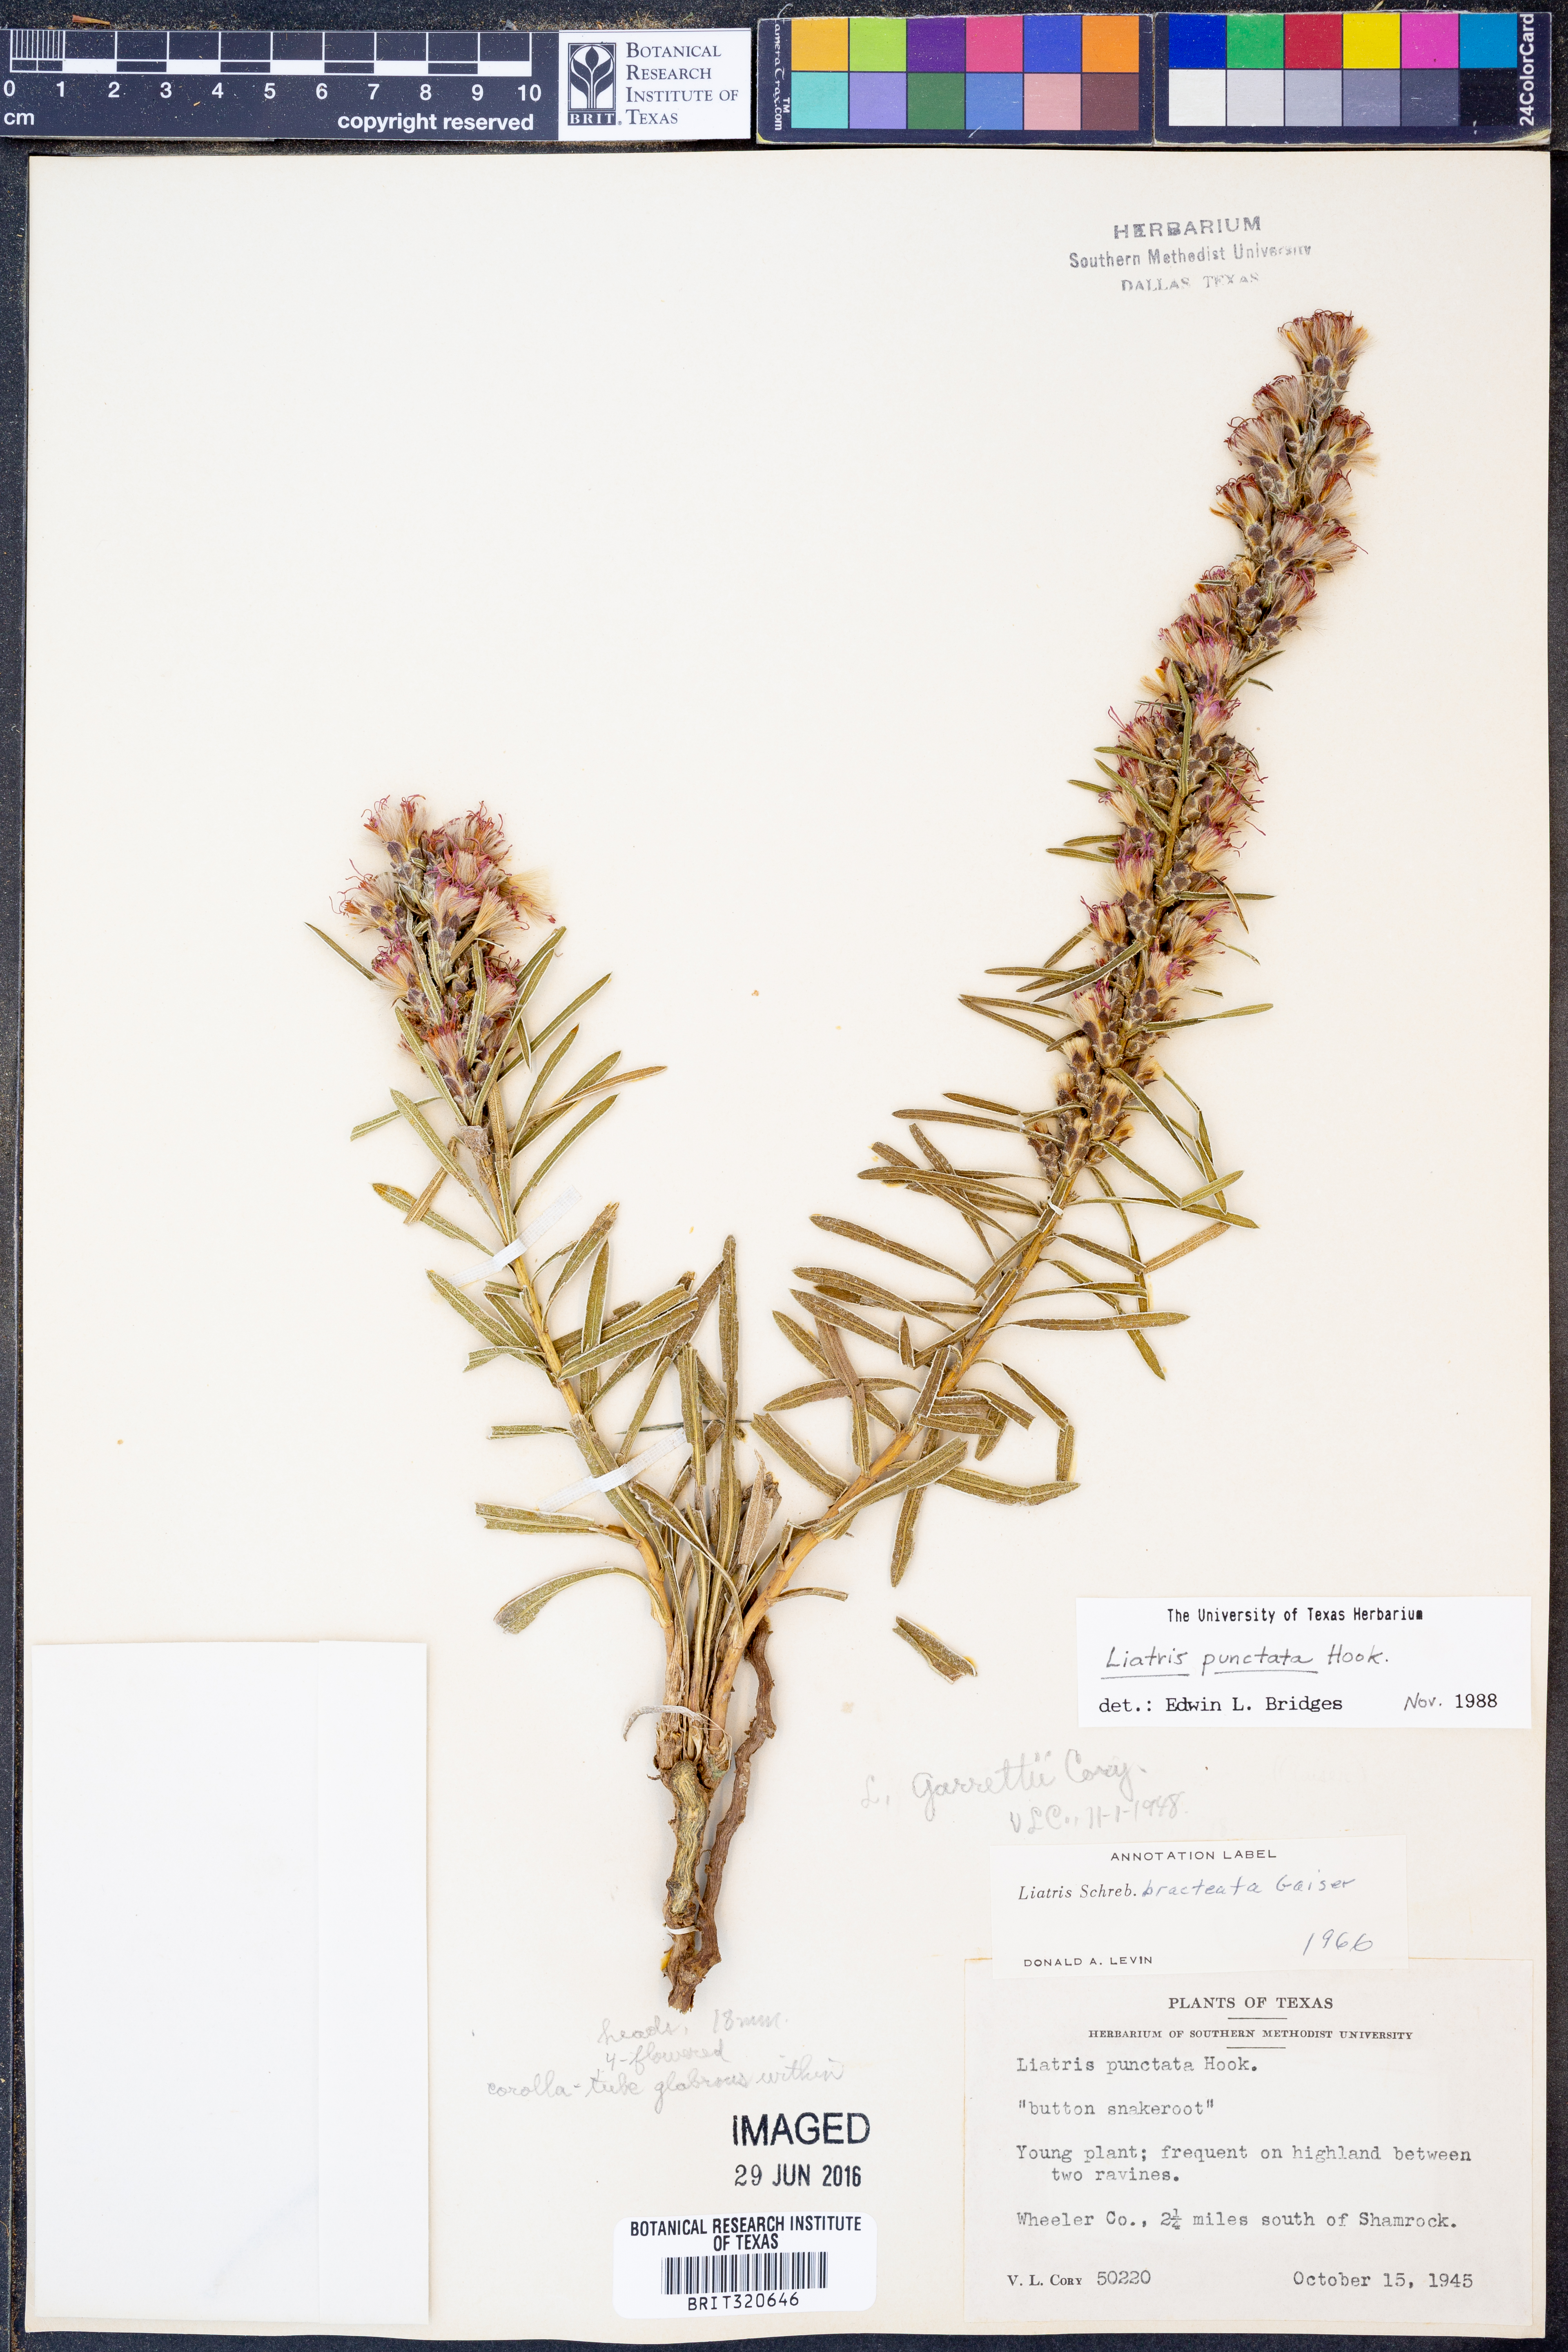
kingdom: Plantae
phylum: Tracheophyta
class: Magnoliopsida
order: Asterales
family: Asteraceae
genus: Liatris
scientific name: Liatris punctata
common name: Dotted gayfeather
